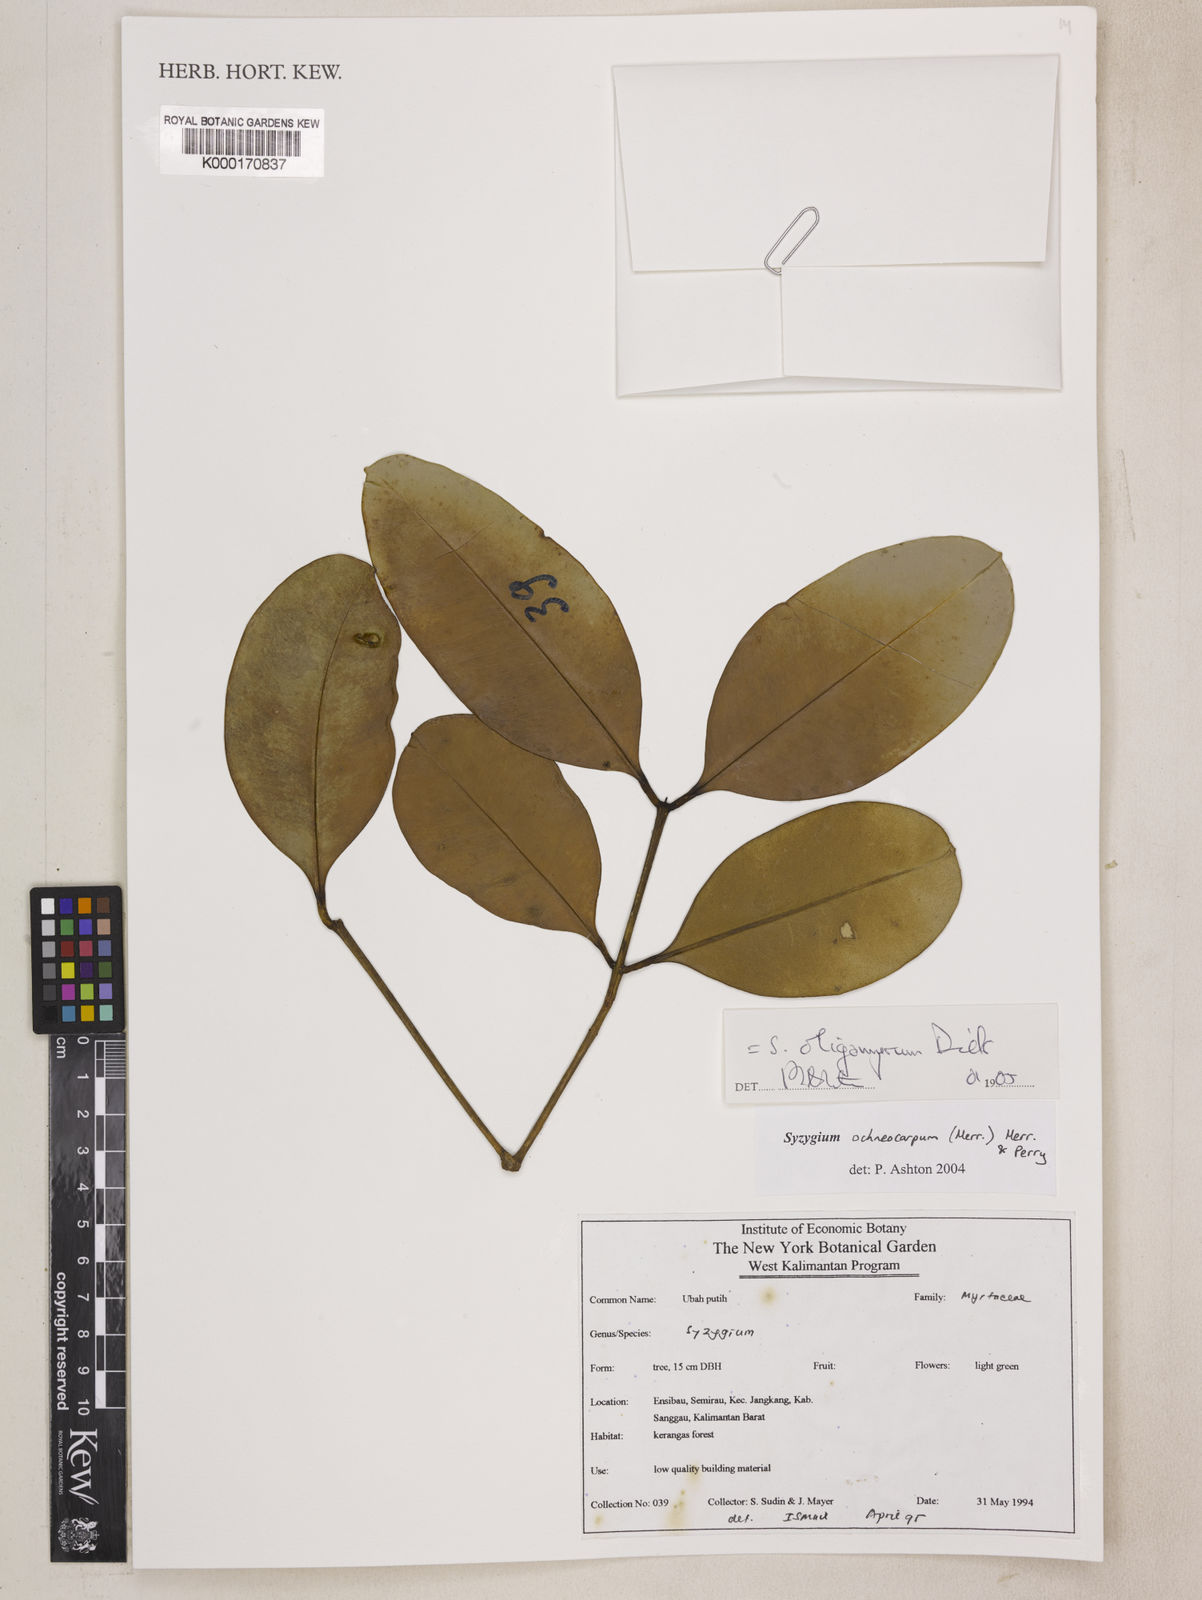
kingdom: Plantae
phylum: Tracheophyta
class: Magnoliopsida
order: Myrtales
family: Myrtaceae
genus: Syzygium
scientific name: Syzygium oligomyrum
